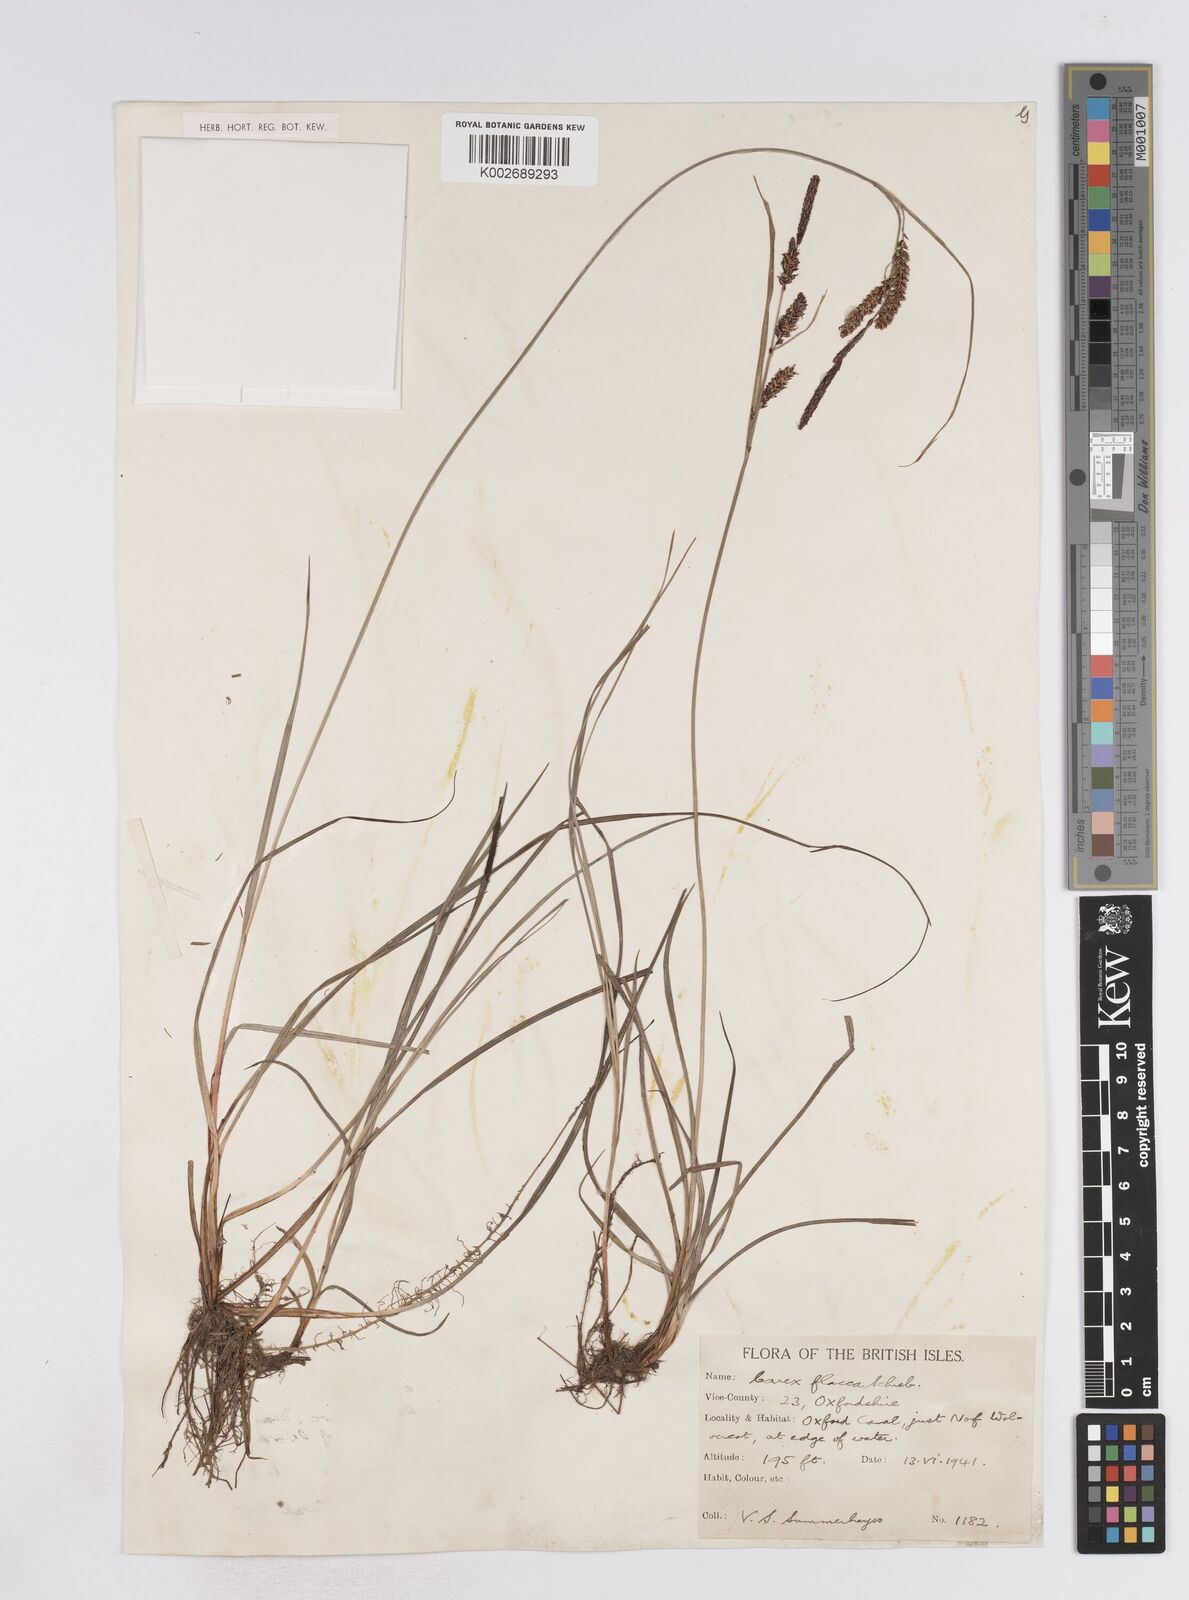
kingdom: Plantae
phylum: Tracheophyta
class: Liliopsida
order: Poales
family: Cyperaceae
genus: Carex
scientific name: Carex flacca
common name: Glaucous sedge
